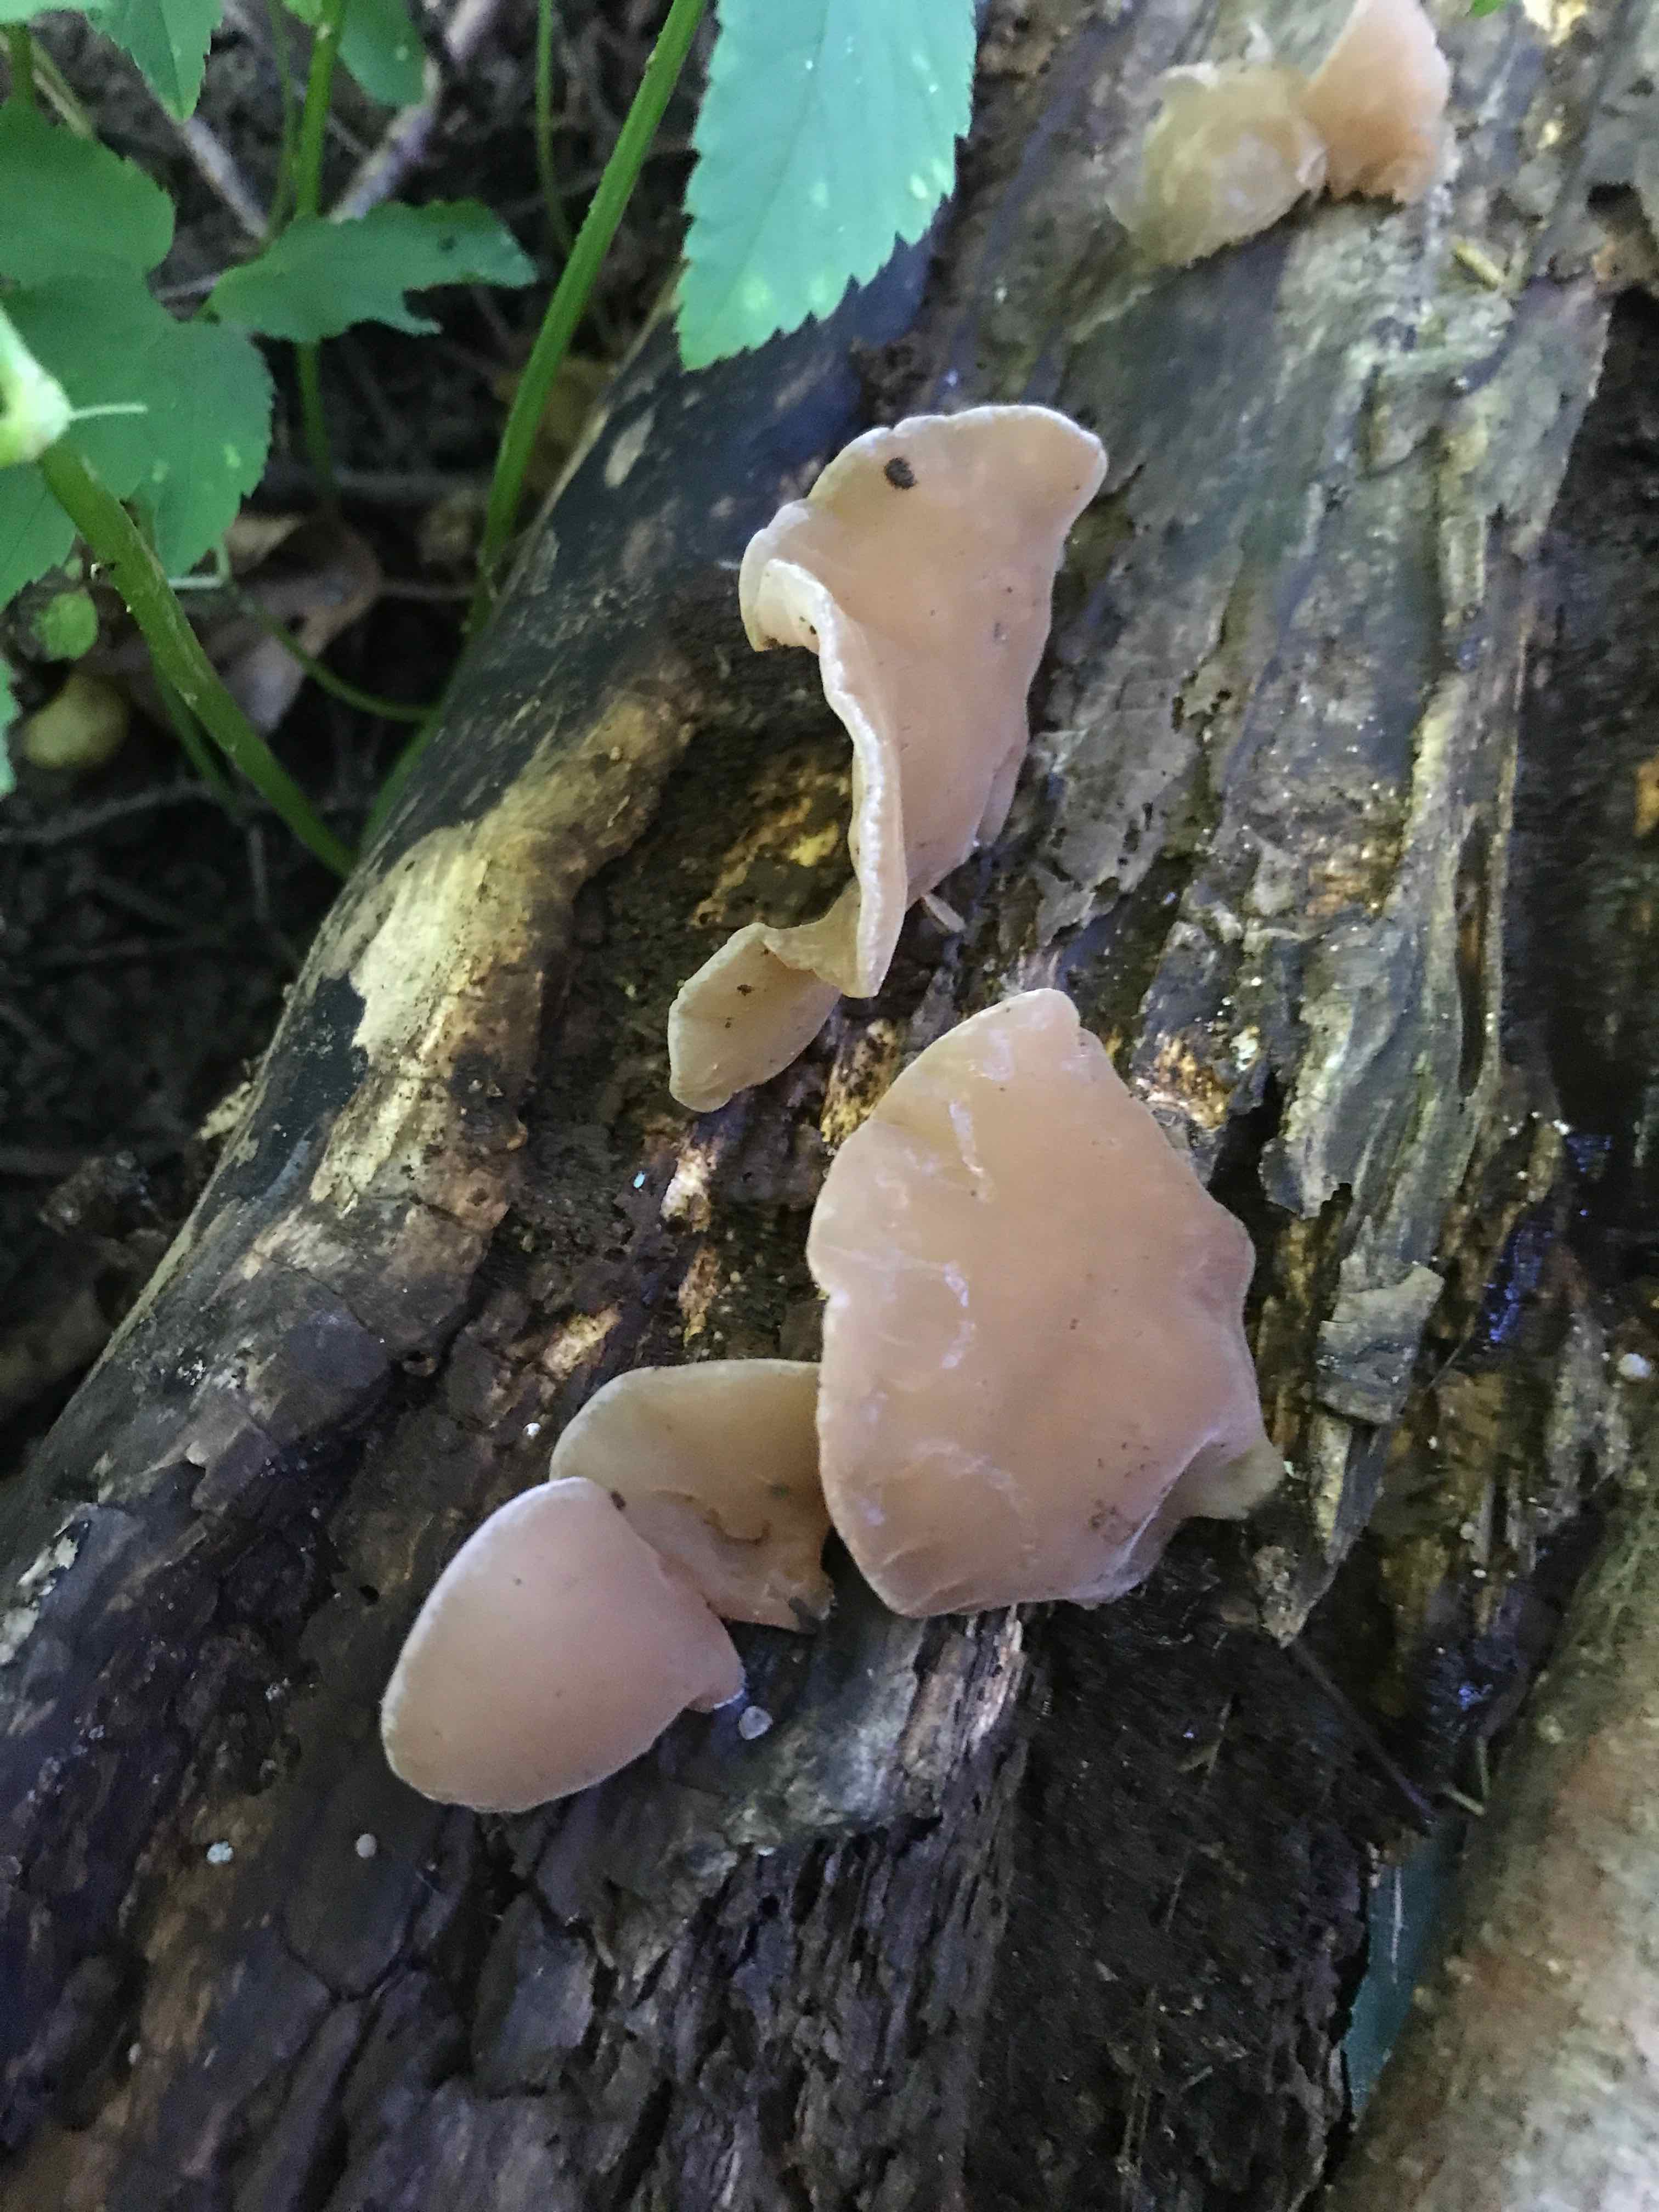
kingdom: Fungi
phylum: Basidiomycota
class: Agaricomycetes
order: Auriculariales
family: Auriculariaceae
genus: Auricularia
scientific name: Auricularia auricula-judae
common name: almindelig judasøre
